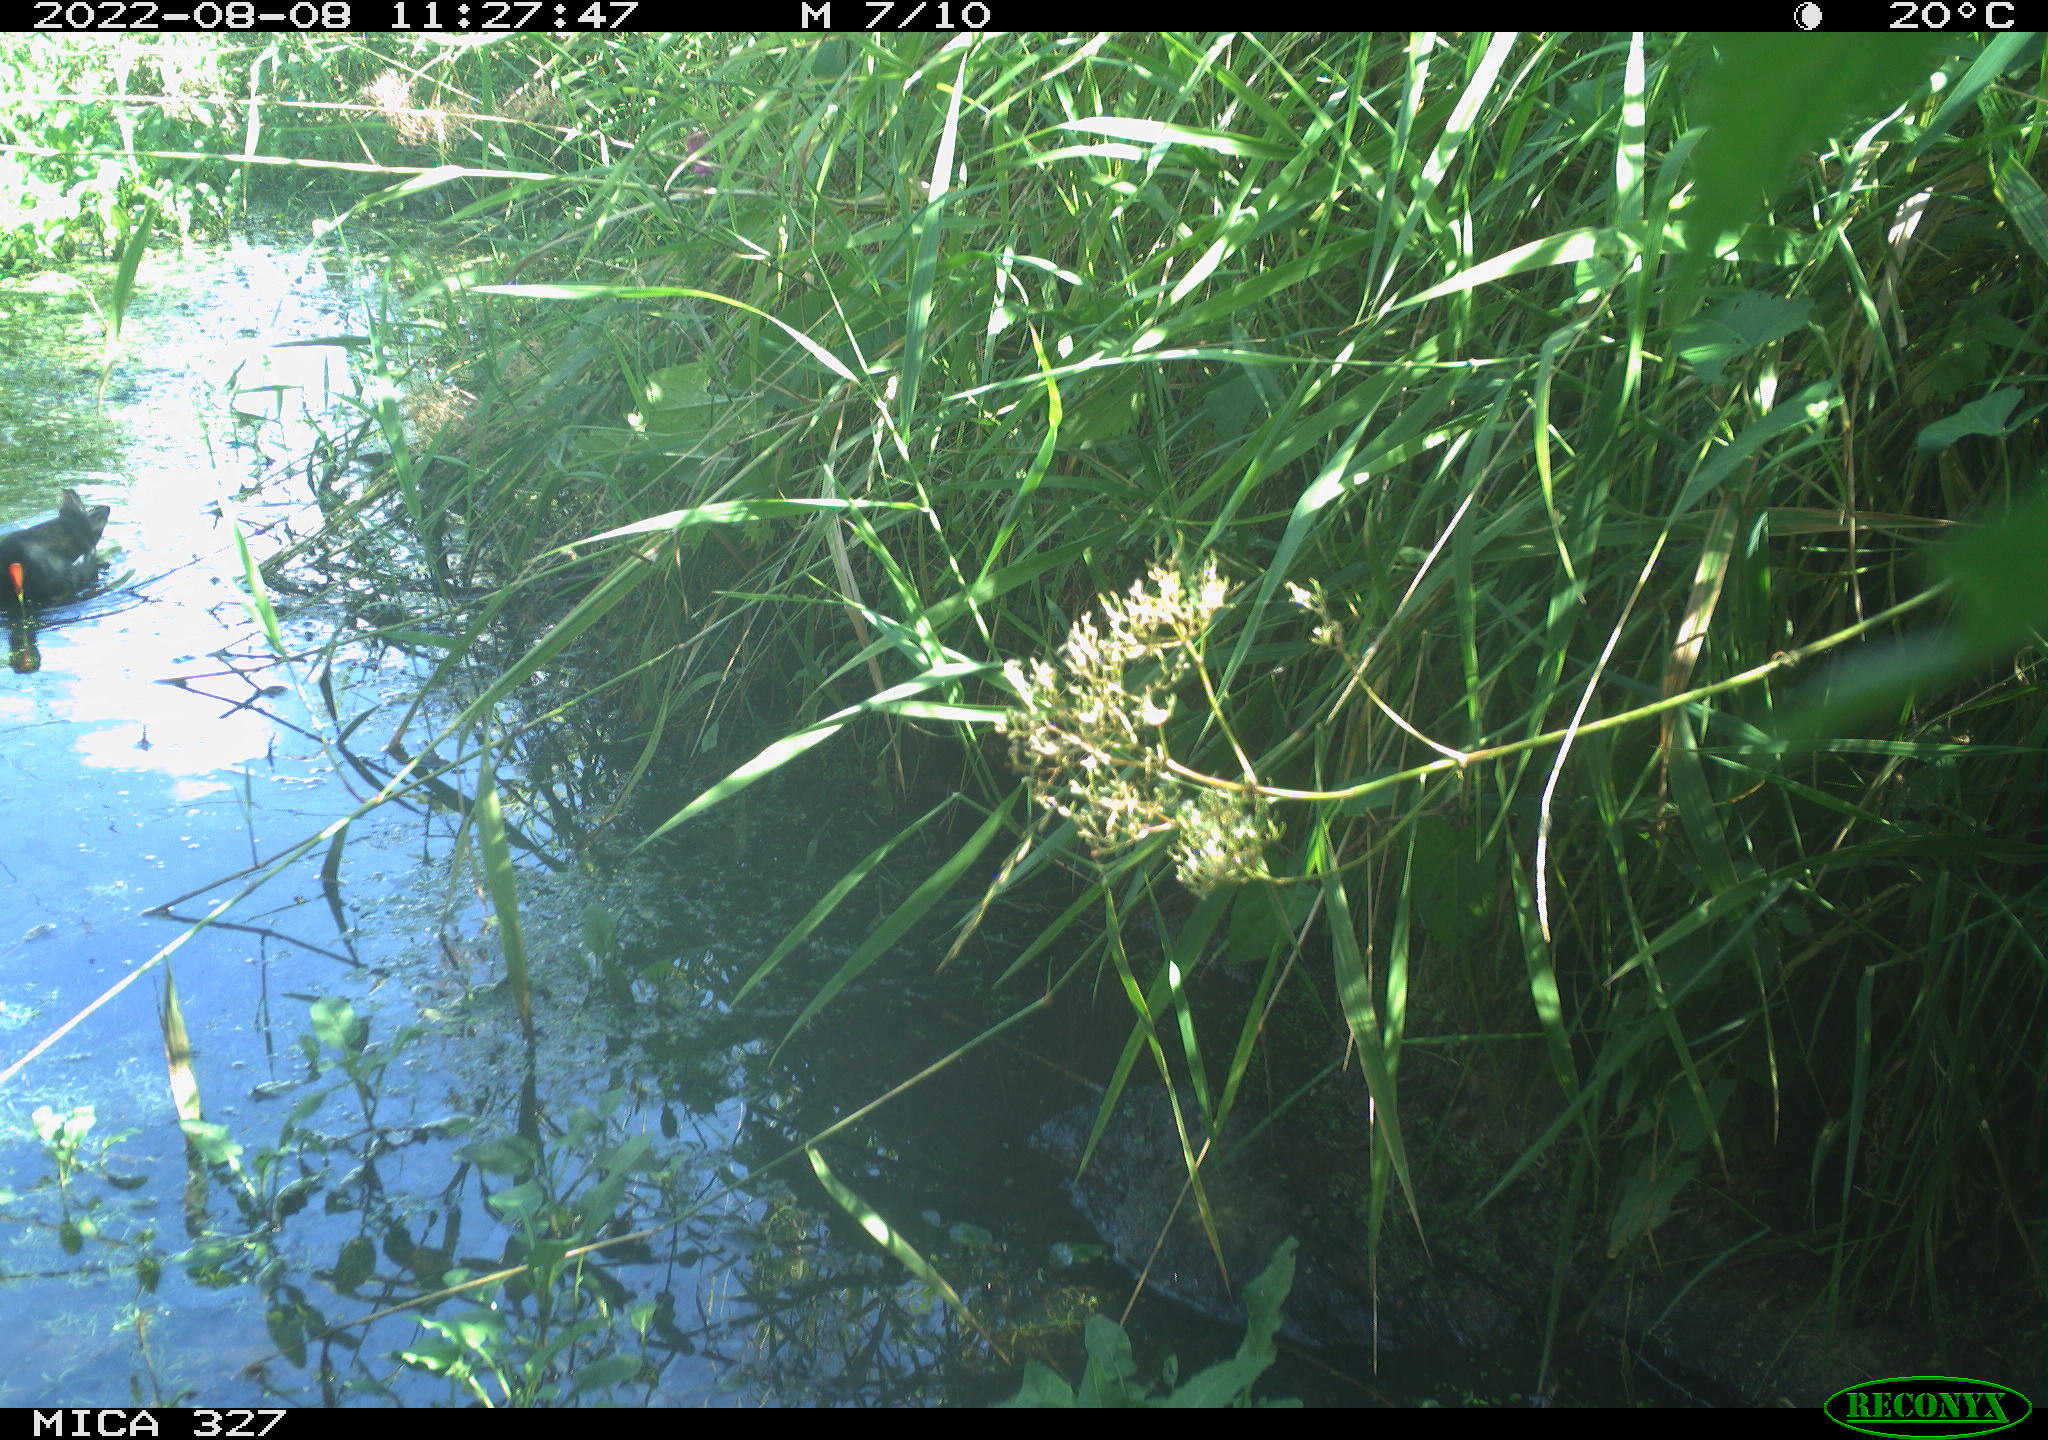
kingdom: Animalia
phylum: Chordata
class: Aves
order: Gruiformes
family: Rallidae
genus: Gallinula
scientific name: Gallinula chloropus
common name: Common moorhen
